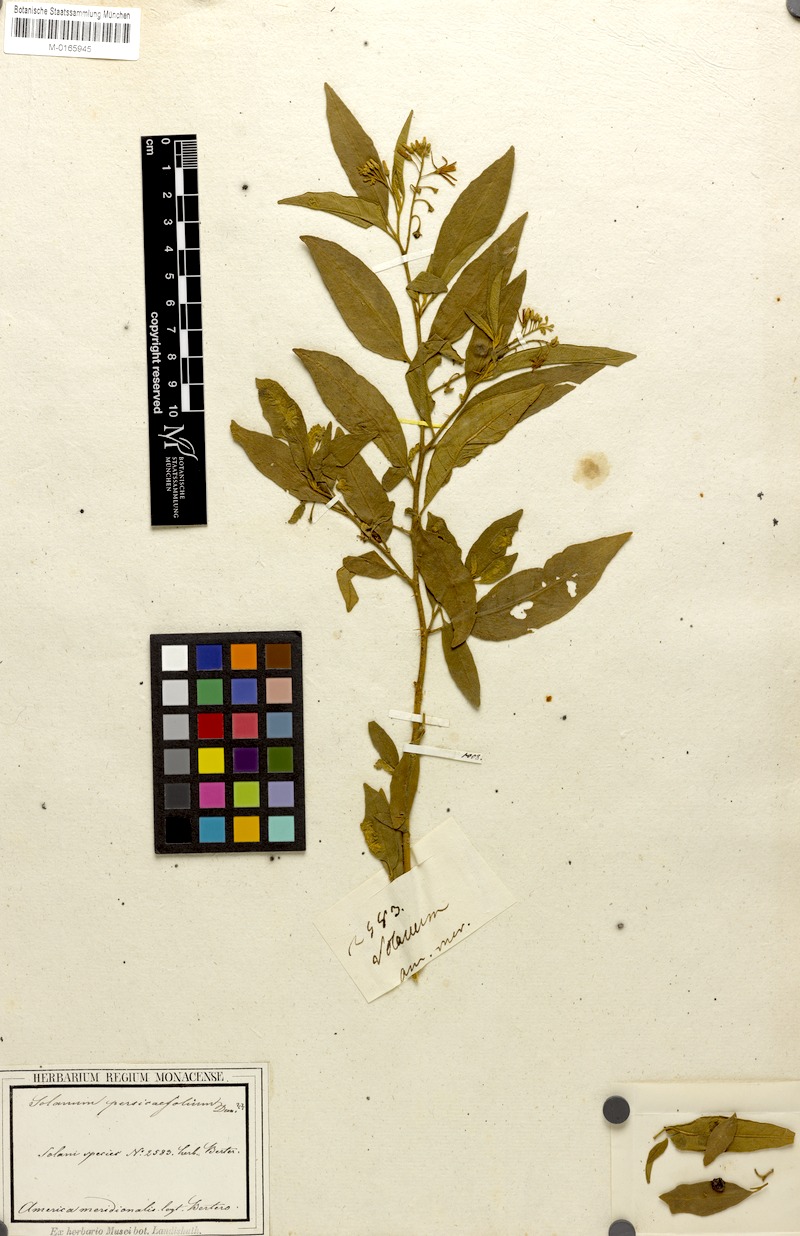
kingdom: Plantae
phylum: Tracheophyta
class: Magnoliopsida
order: Solanales
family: Solanaceae
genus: Solanum
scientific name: Solanum bahamense
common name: Canker-berry
